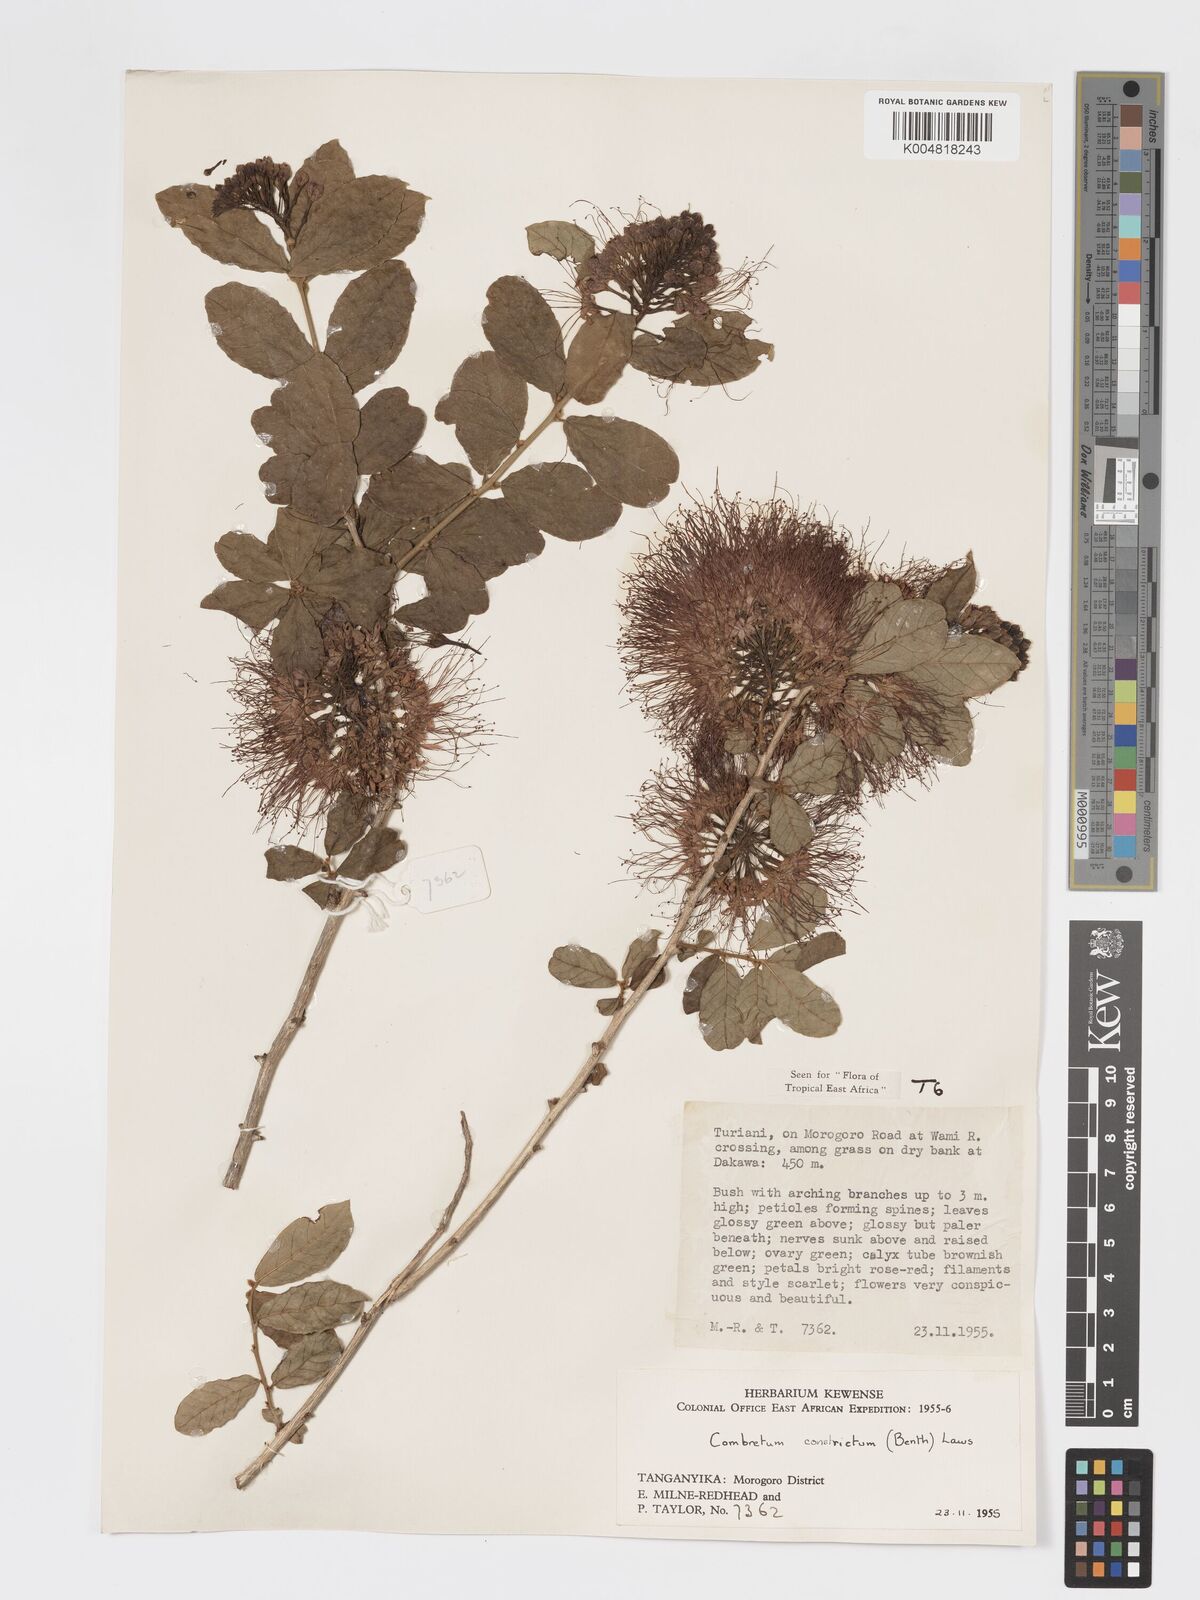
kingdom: Plantae
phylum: Tracheophyta
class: Magnoliopsida
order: Myrtales
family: Combretaceae
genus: Combretum
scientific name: Combretum constrictum
